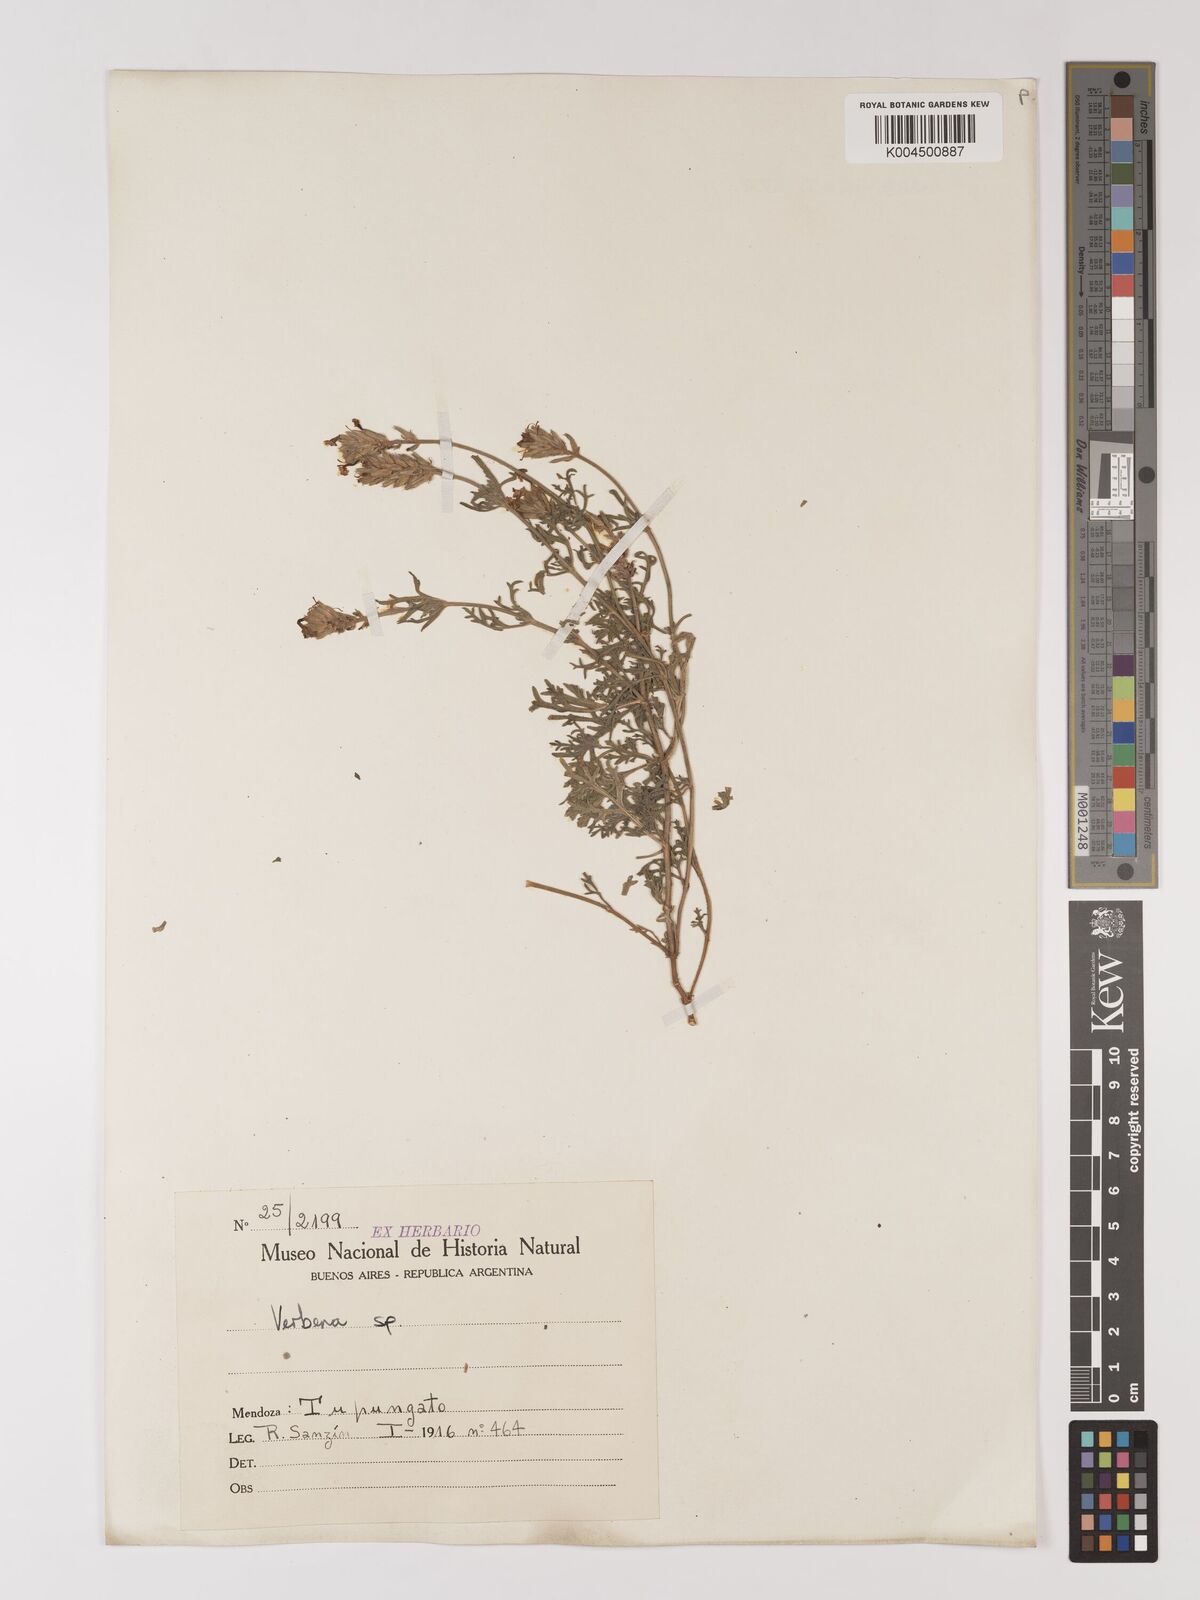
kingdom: Plantae
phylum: Tracheophyta
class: Magnoliopsida
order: Lamiales
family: Verbenaceae
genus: Verbena
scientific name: Verbena
